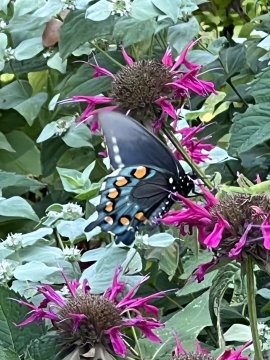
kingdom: Animalia
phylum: Arthropoda
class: Insecta
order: Lepidoptera
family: Papilionidae
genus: Battus
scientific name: Battus philenor
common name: Pipevine Swallowtail
